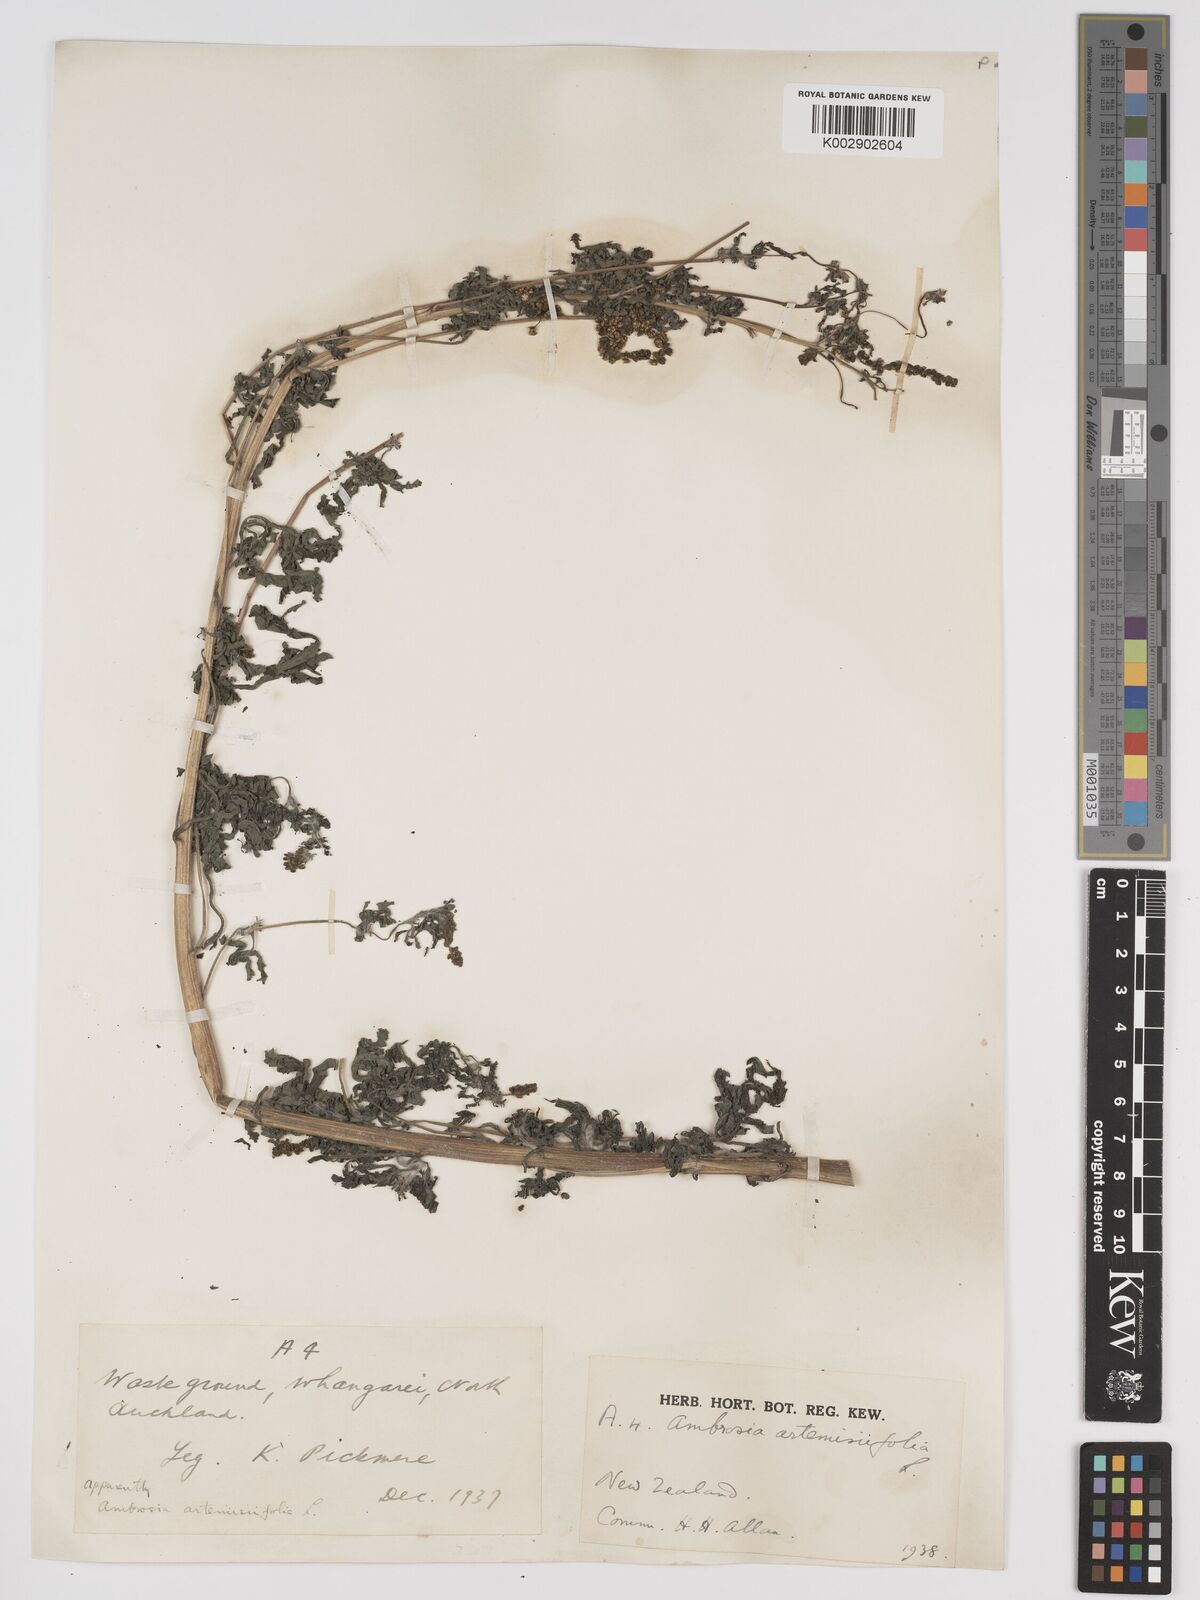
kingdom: Plantae
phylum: Tracheophyta
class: Magnoliopsida
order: Asterales
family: Asteraceae
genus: Ambrosia
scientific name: Ambrosia artemisiifolia
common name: Annual ragweed
